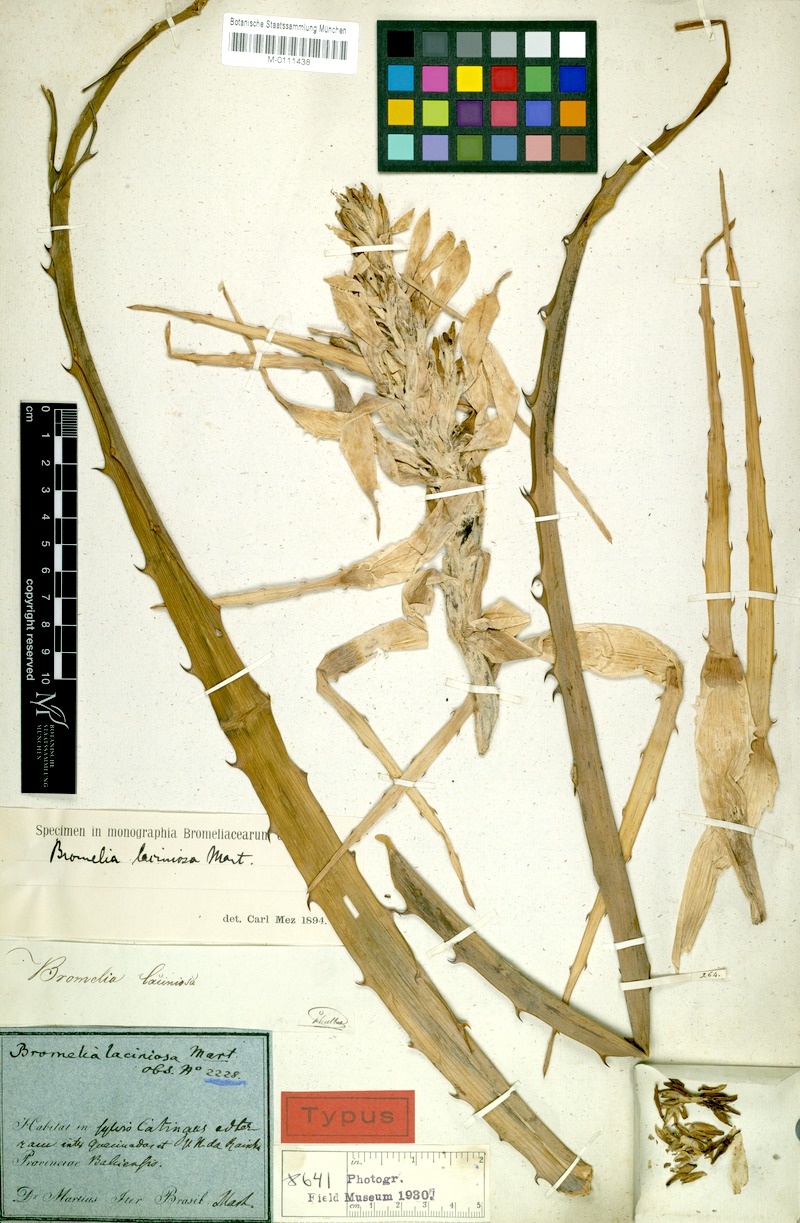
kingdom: Plantae
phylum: Tracheophyta
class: Liliopsida
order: Poales
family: Bromeliaceae
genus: Bromelia
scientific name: Bromelia laciniosa
